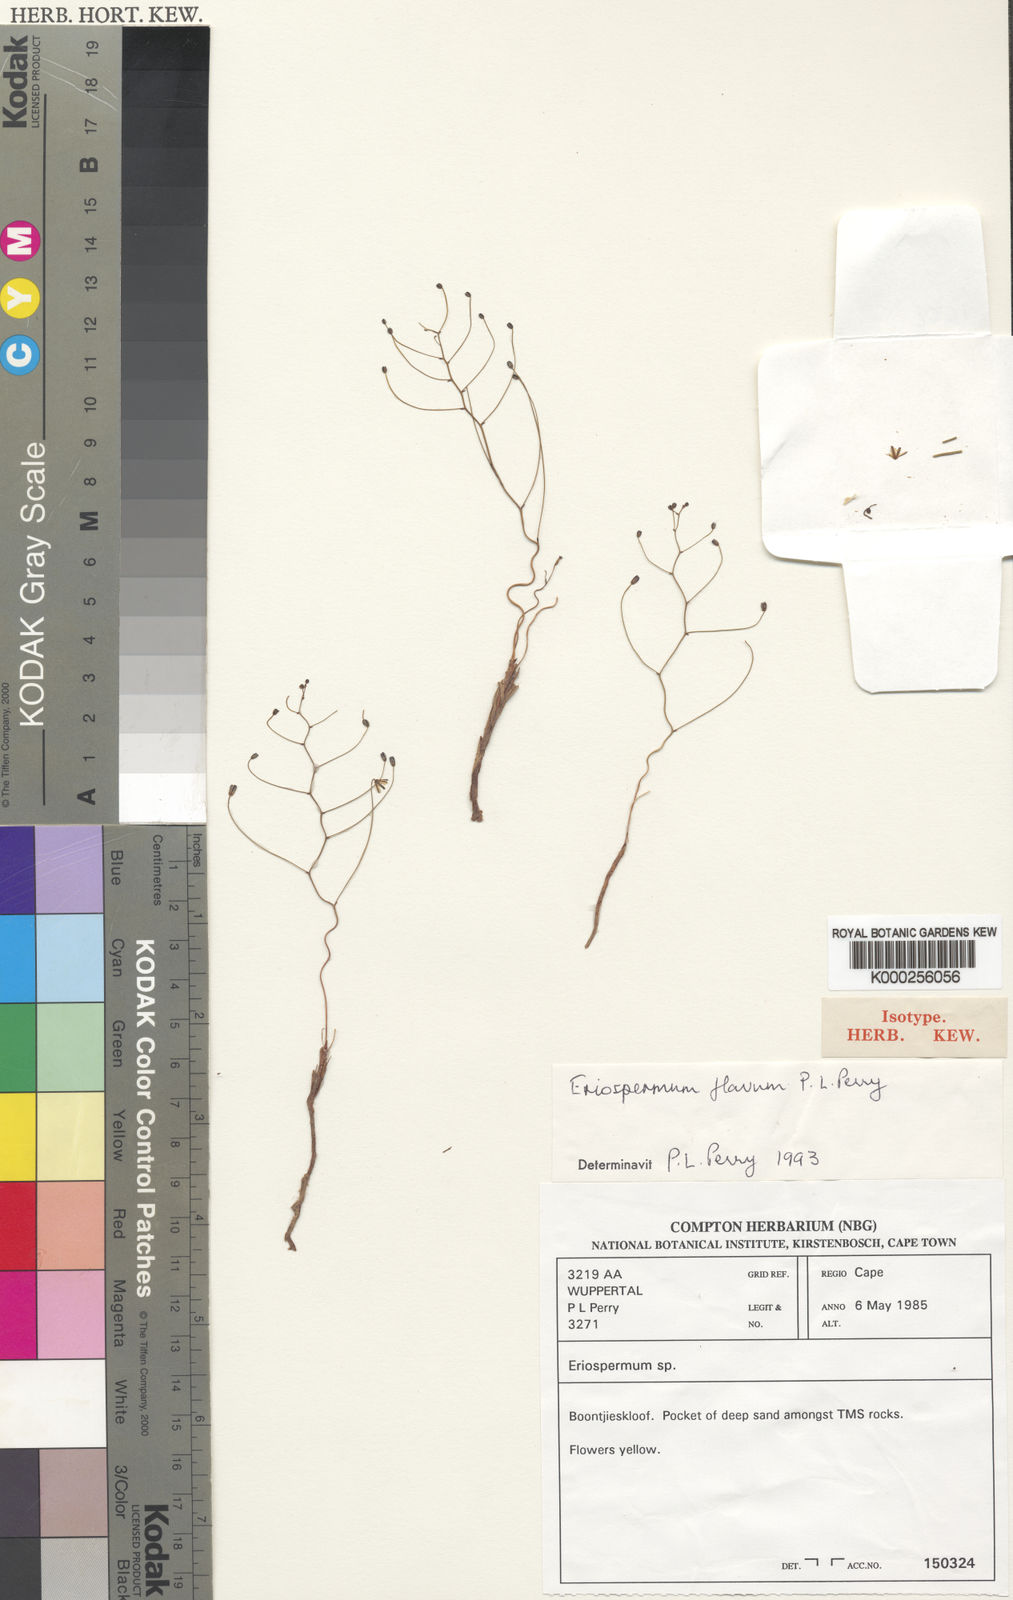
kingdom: Plantae
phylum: Tracheophyta
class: Liliopsida
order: Asparagales
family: Asparagaceae
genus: Eriospermum
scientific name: Eriospermum flavum
